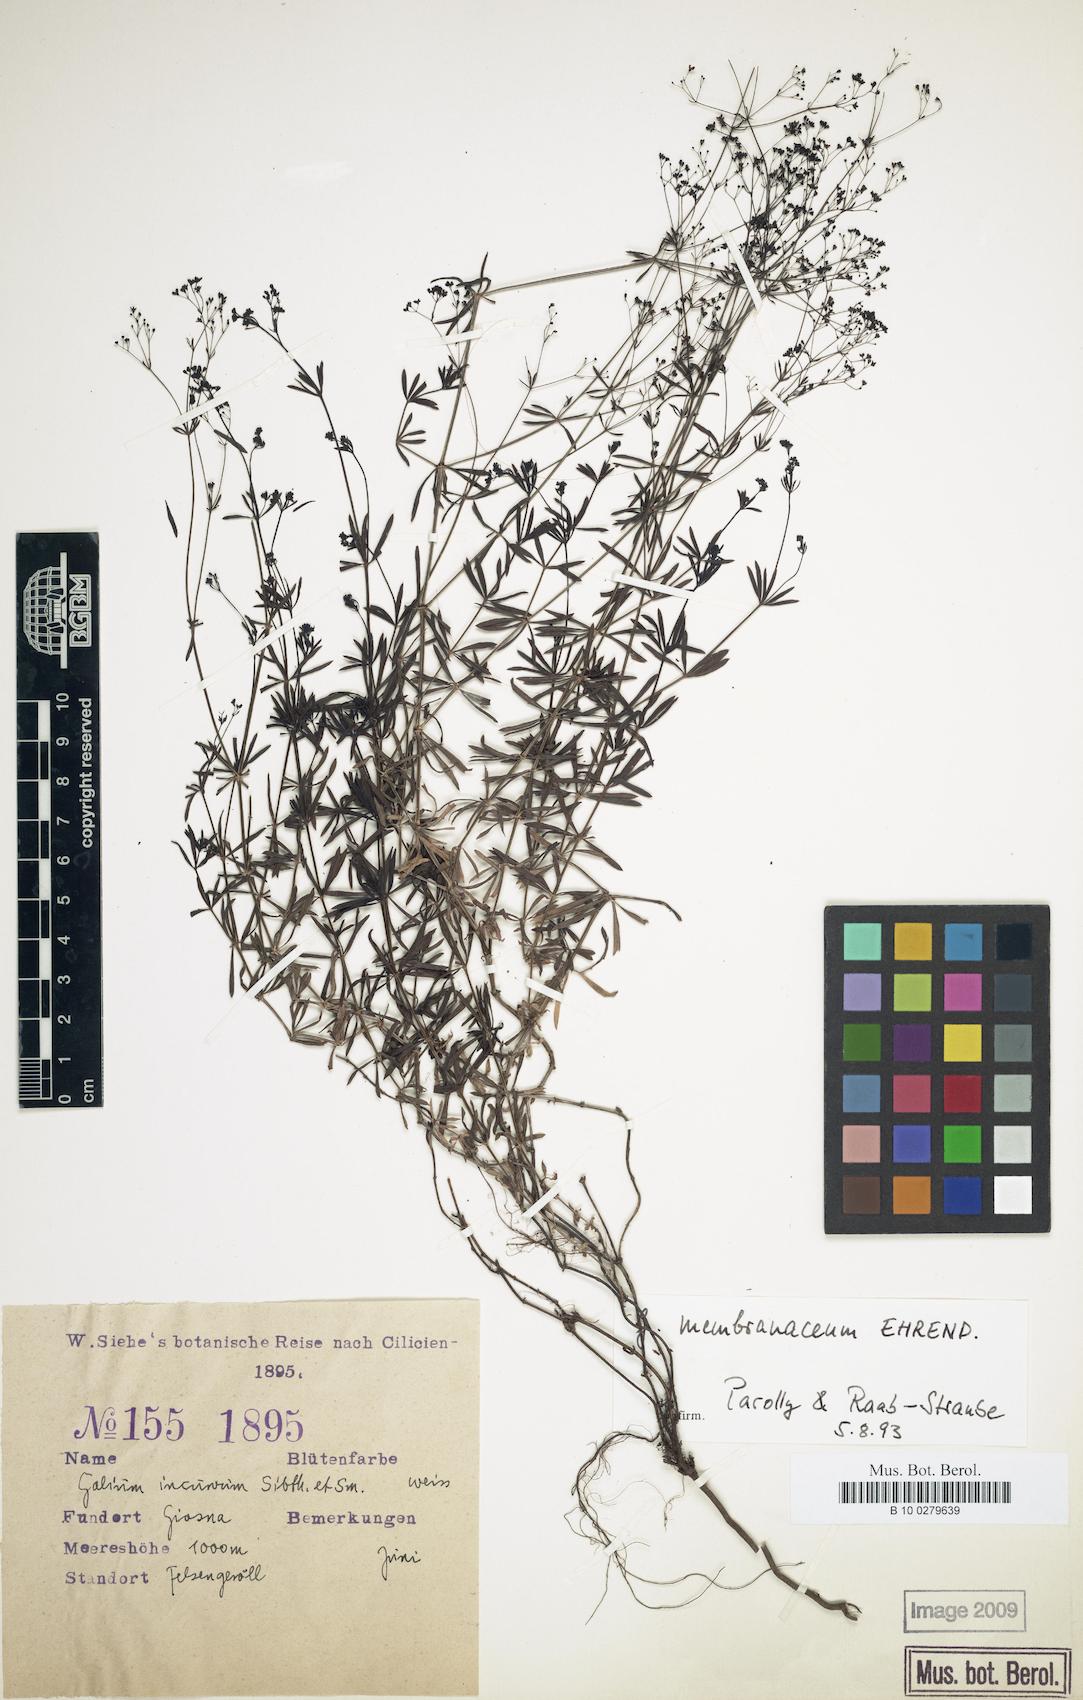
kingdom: Plantae
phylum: Tracheophyta
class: Magnoliopsida
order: Gentianales
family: Rubiaceae
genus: Galium
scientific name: Galium membranaceum
